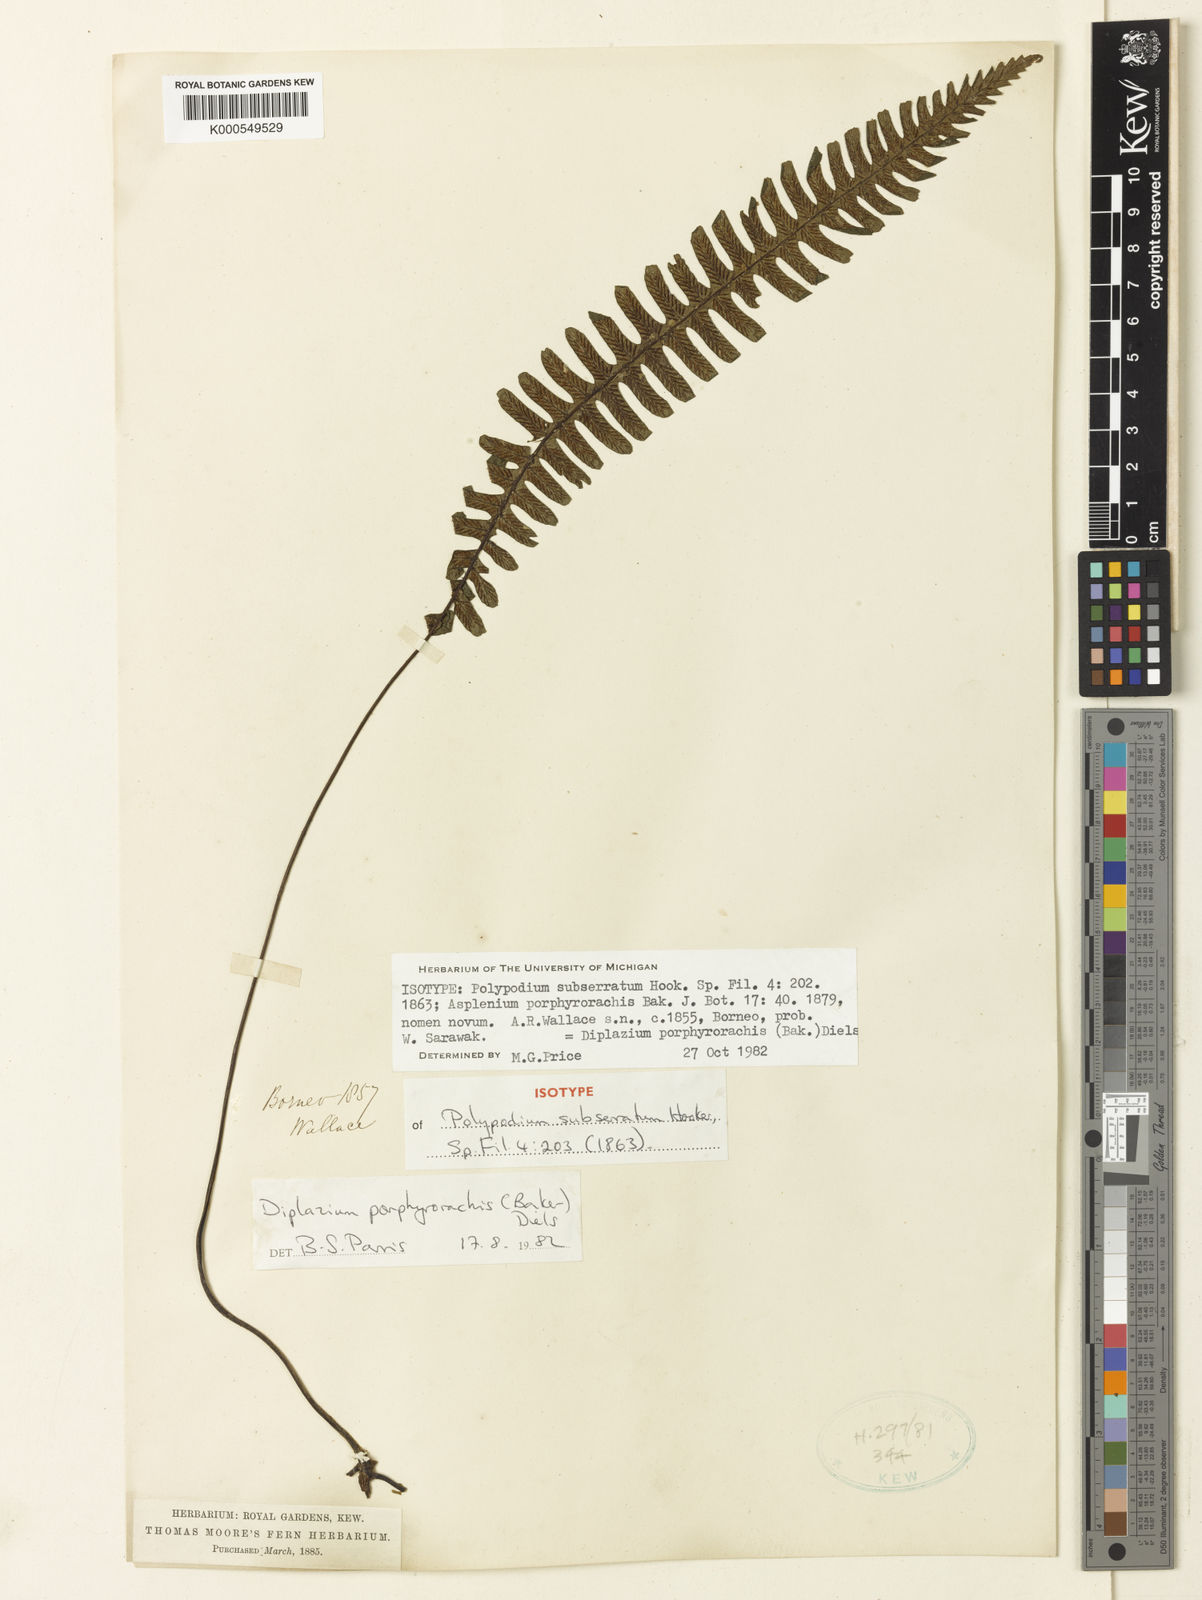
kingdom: Plantae
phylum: Tracheophyta
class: Polypodiopsida
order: Polypodiales
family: Athyriaceae
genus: Diplazium
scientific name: Diplazium porphyrorachis
